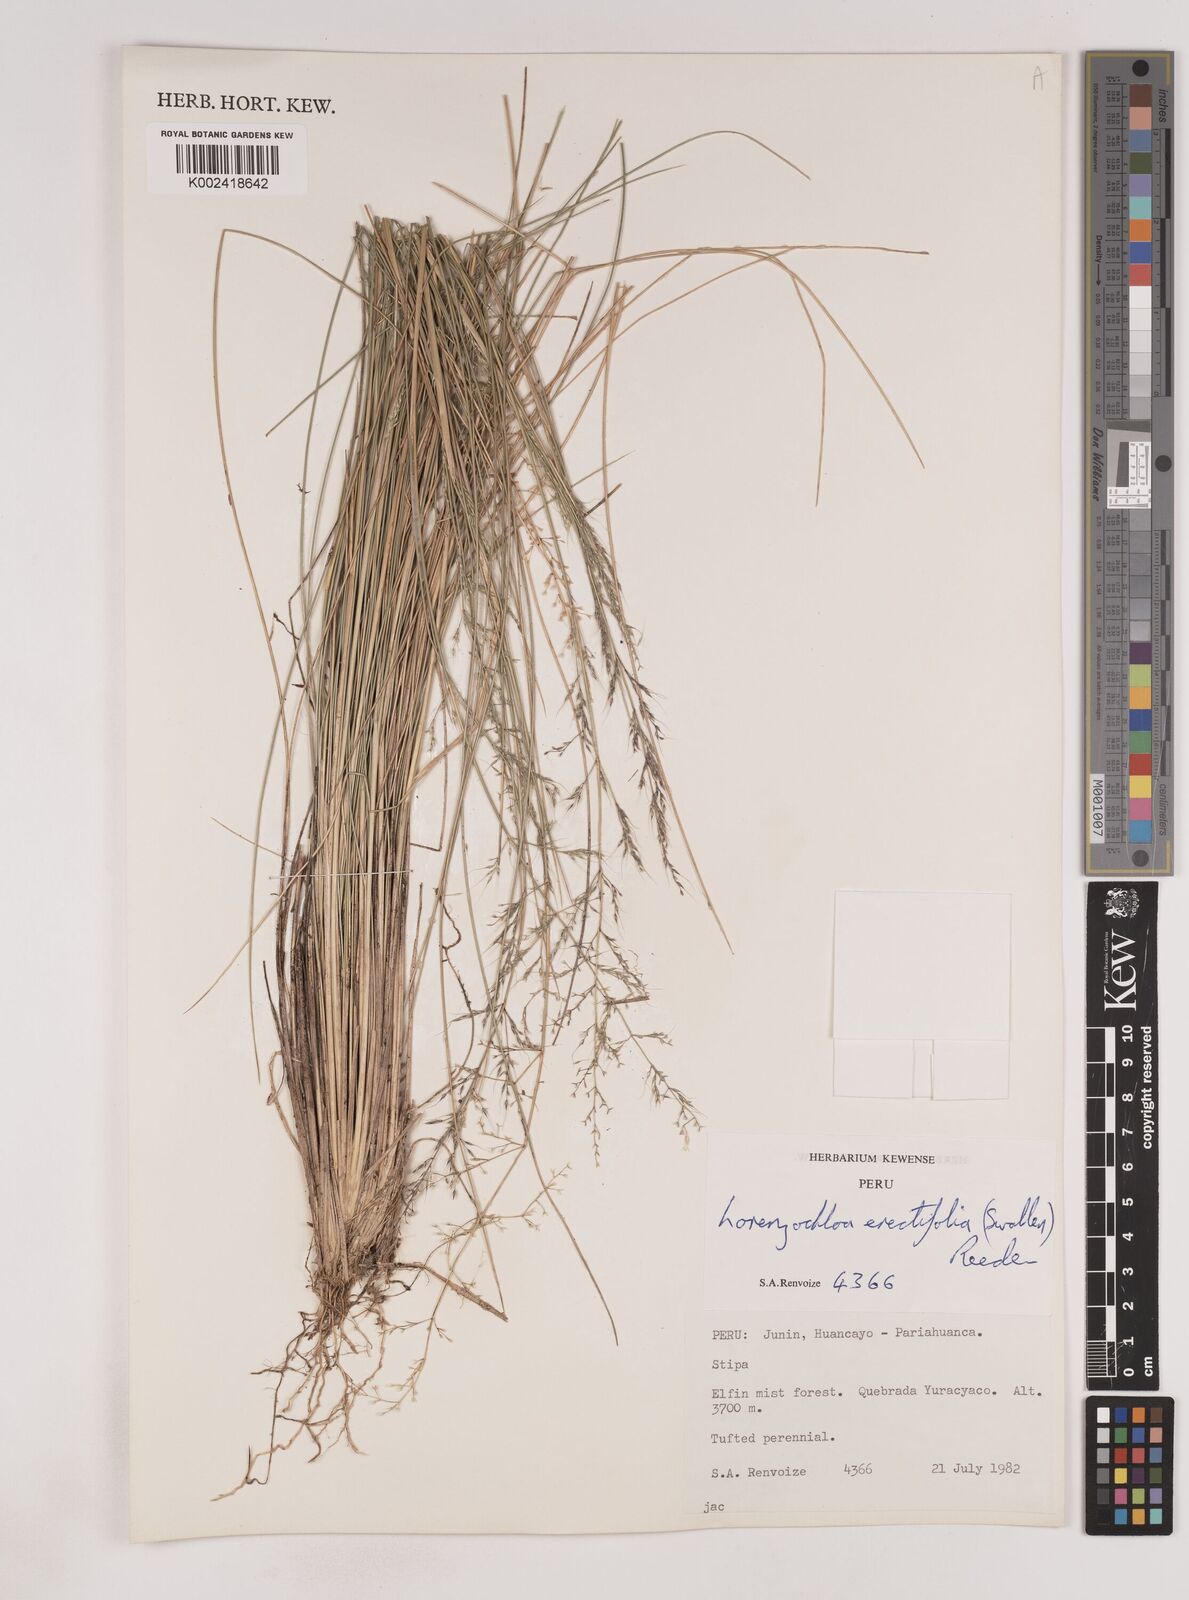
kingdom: Plantae
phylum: Tracheophyta
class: Liliopsida
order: Poales
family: Poaceae
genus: Lorenzochloa
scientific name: Lorenzochloa erectifolia
